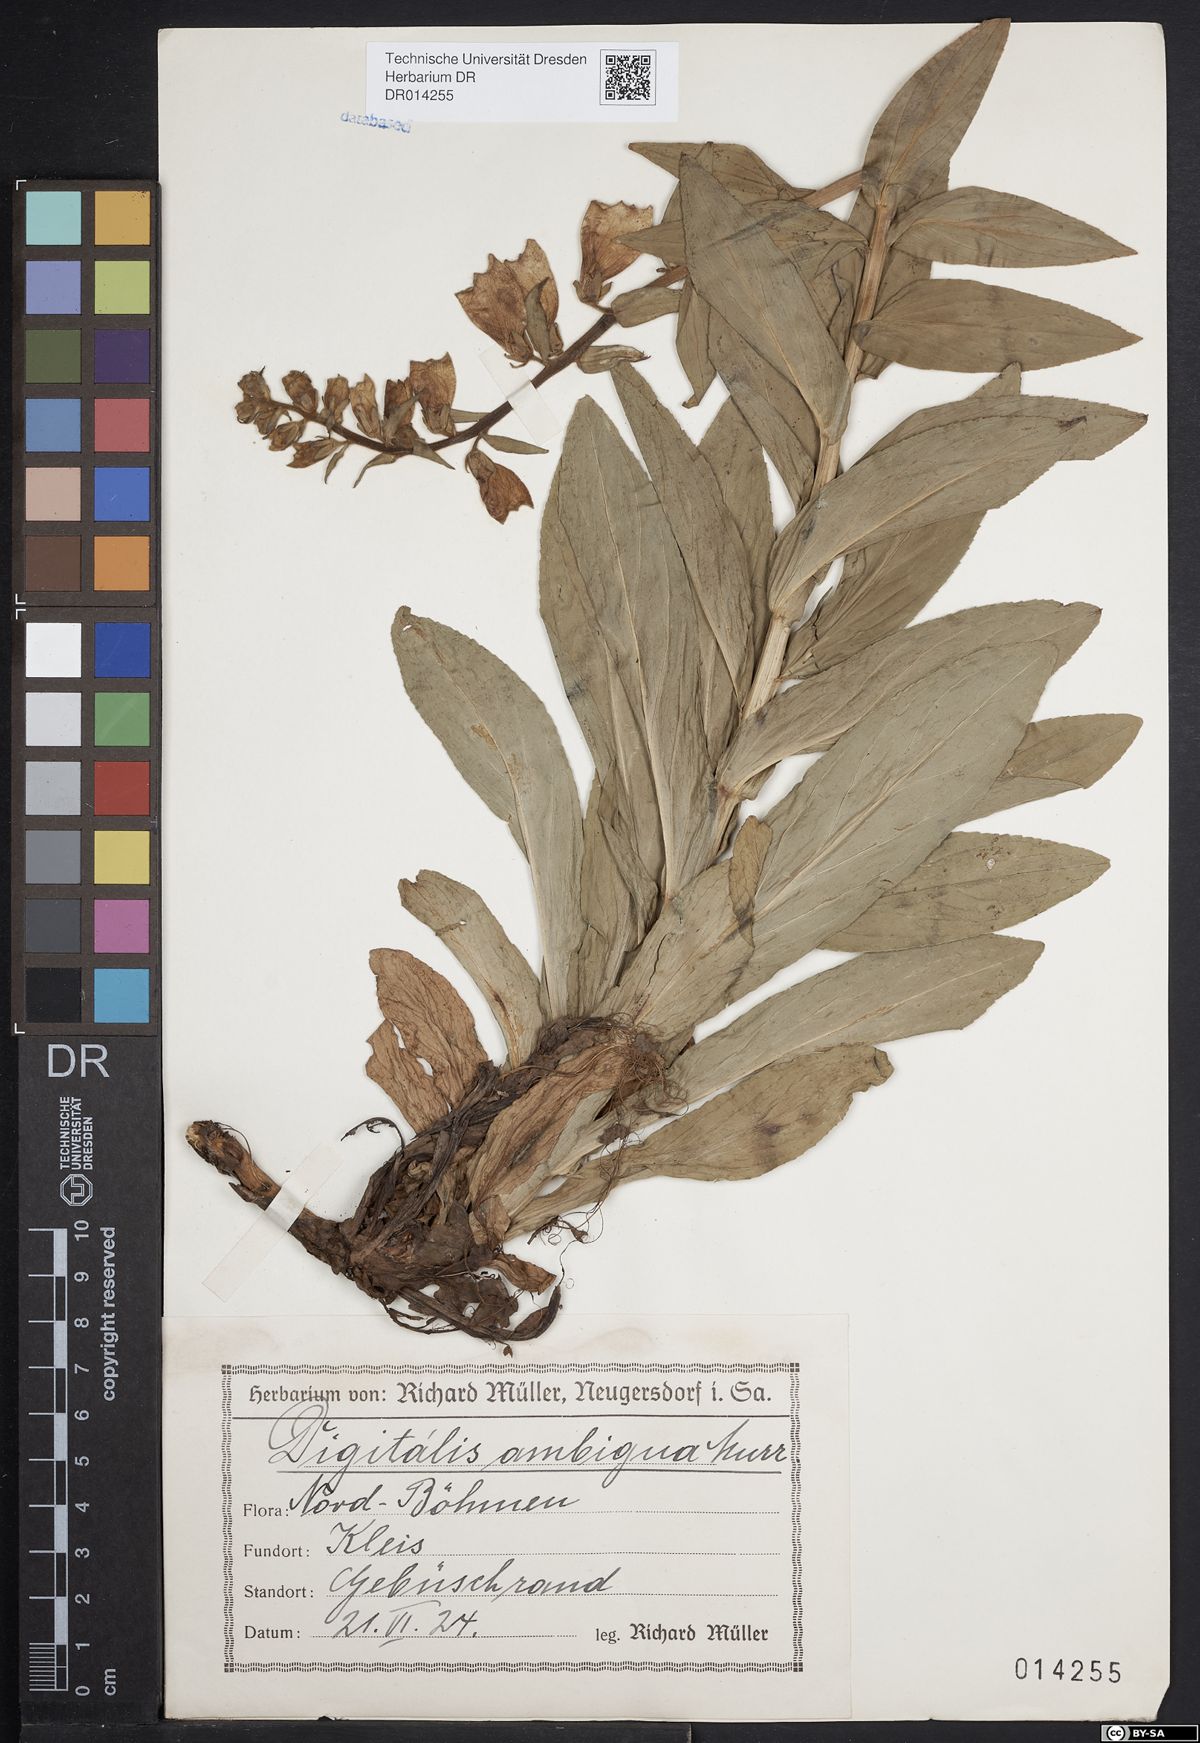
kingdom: Plantae
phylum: Tracheophyta
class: Magnoliopsida
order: Lamiales
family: Plantaginaceae
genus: Digitalis
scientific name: Digitalis grandiflora
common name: Yellow foxglove
